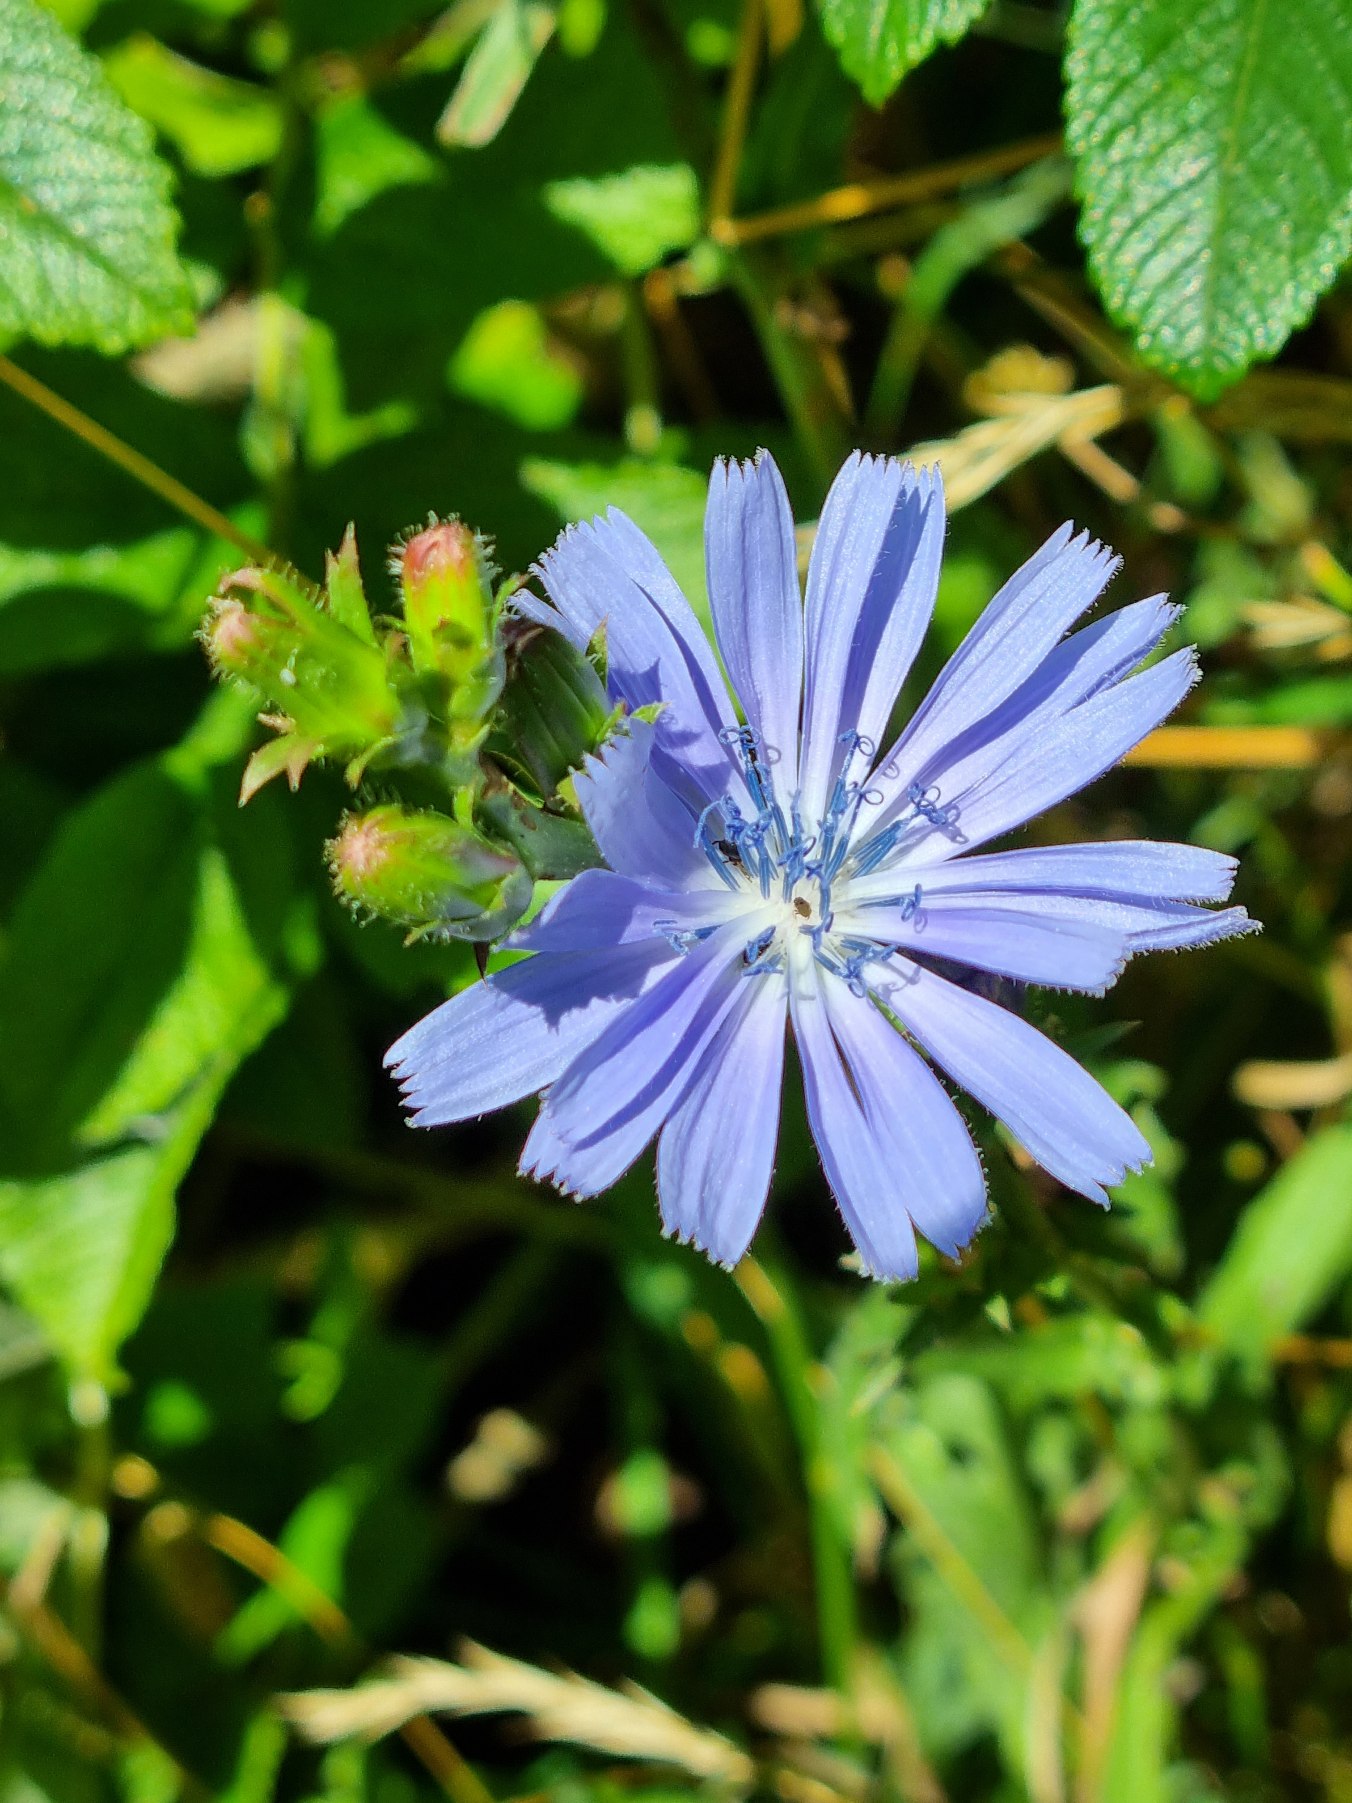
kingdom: Plantae
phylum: Tracheophyta
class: Magnoliopsida
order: Asterales
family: Asteraceae
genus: Cichorium
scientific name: Cichorium intybus
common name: Cikorie
